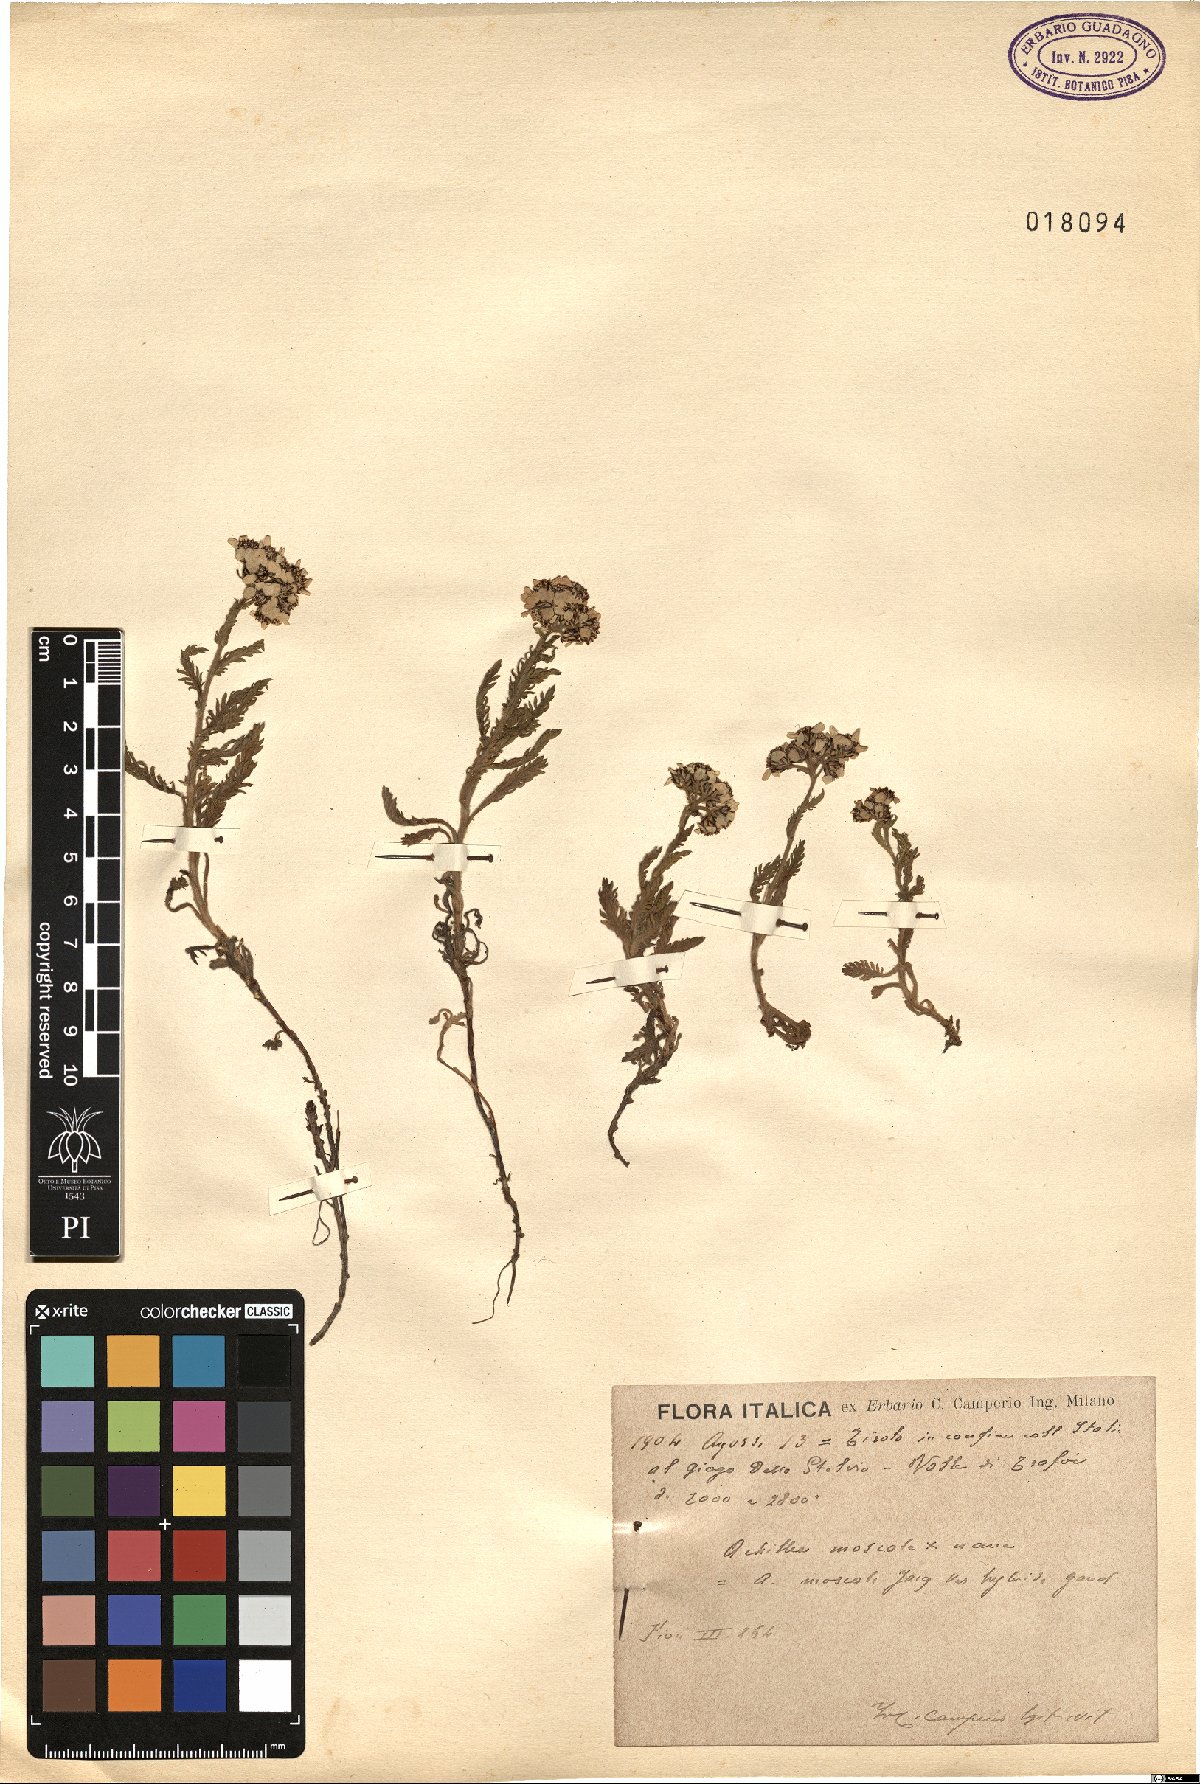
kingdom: Plantae
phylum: Tracheophyta
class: Magnoliopsida
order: Asterales
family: Asteraceae
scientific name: Asteraceae
